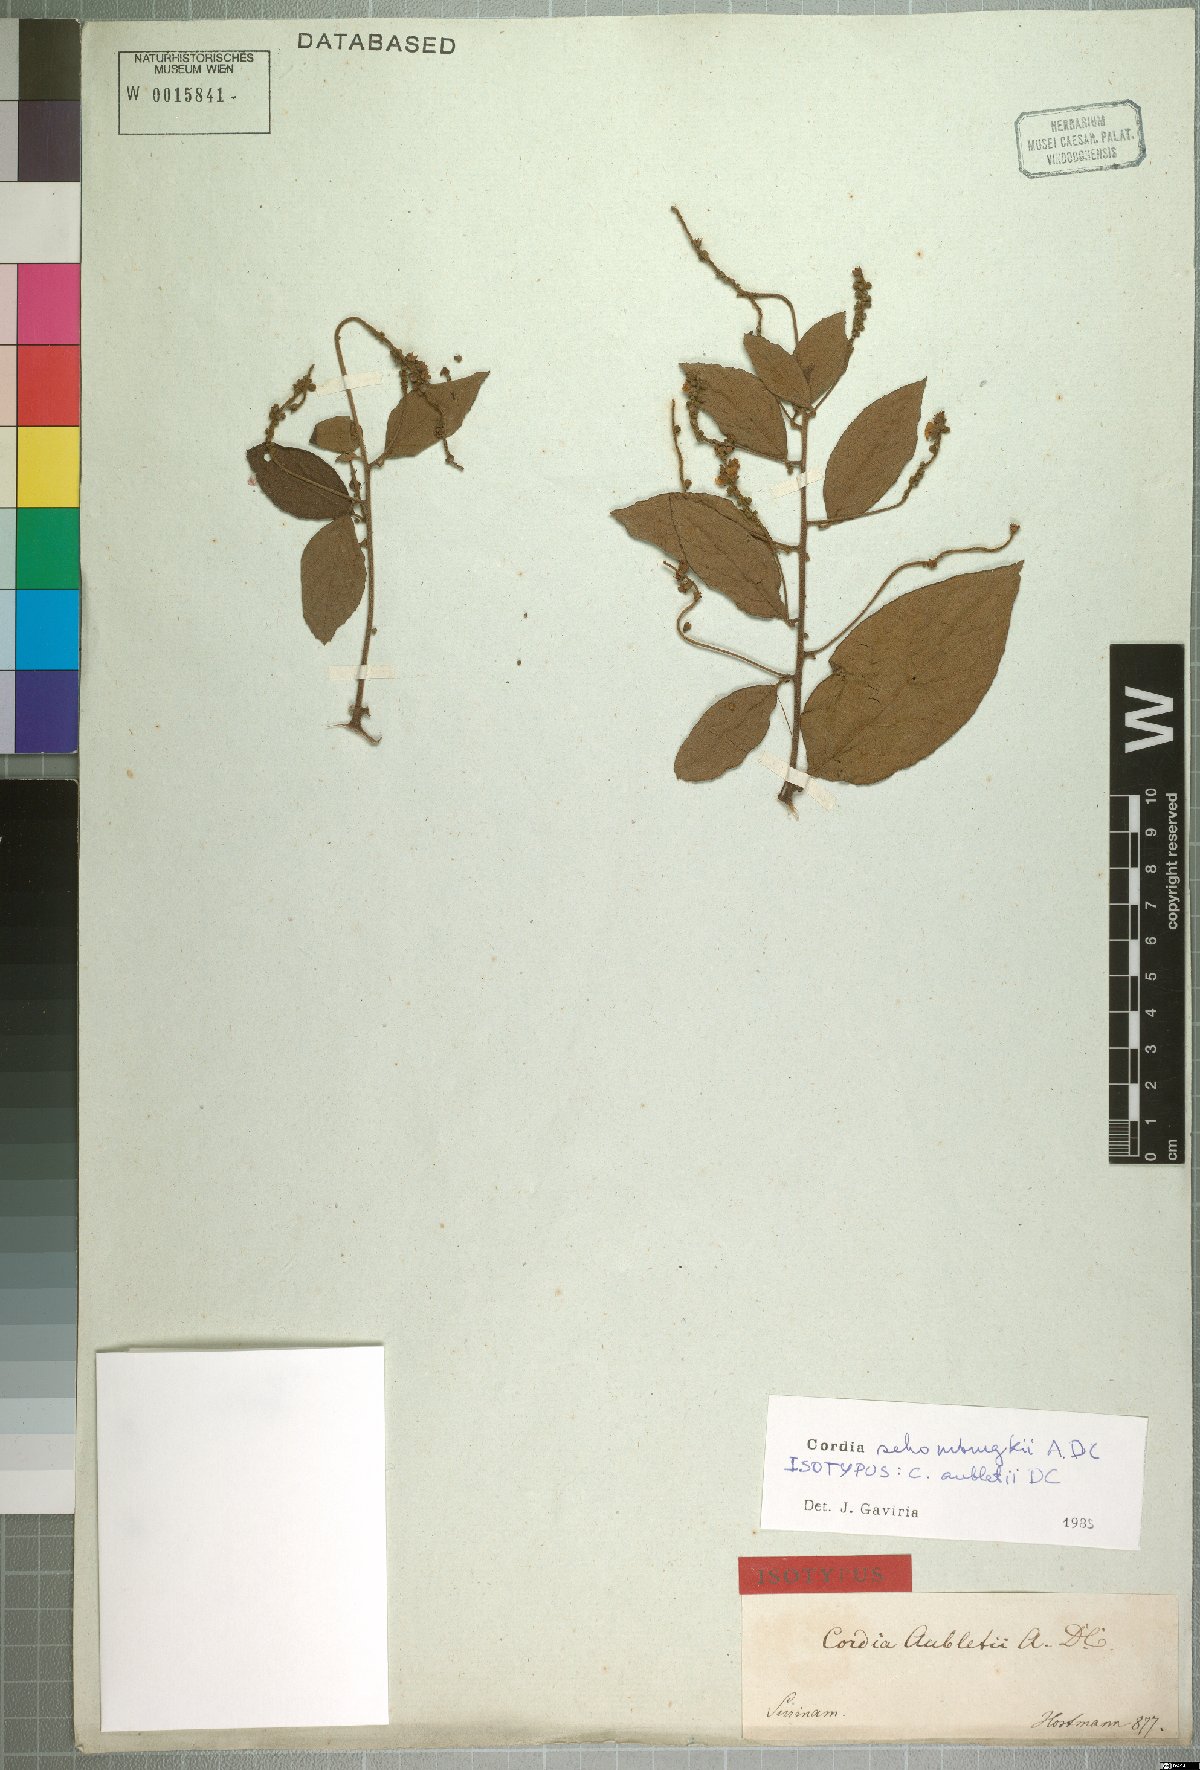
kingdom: Plantae
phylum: Tracheophyta
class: Magnoliopsida
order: Boraginales
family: Cordiaceae
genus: Varronia
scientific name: Varronia tomentosa
